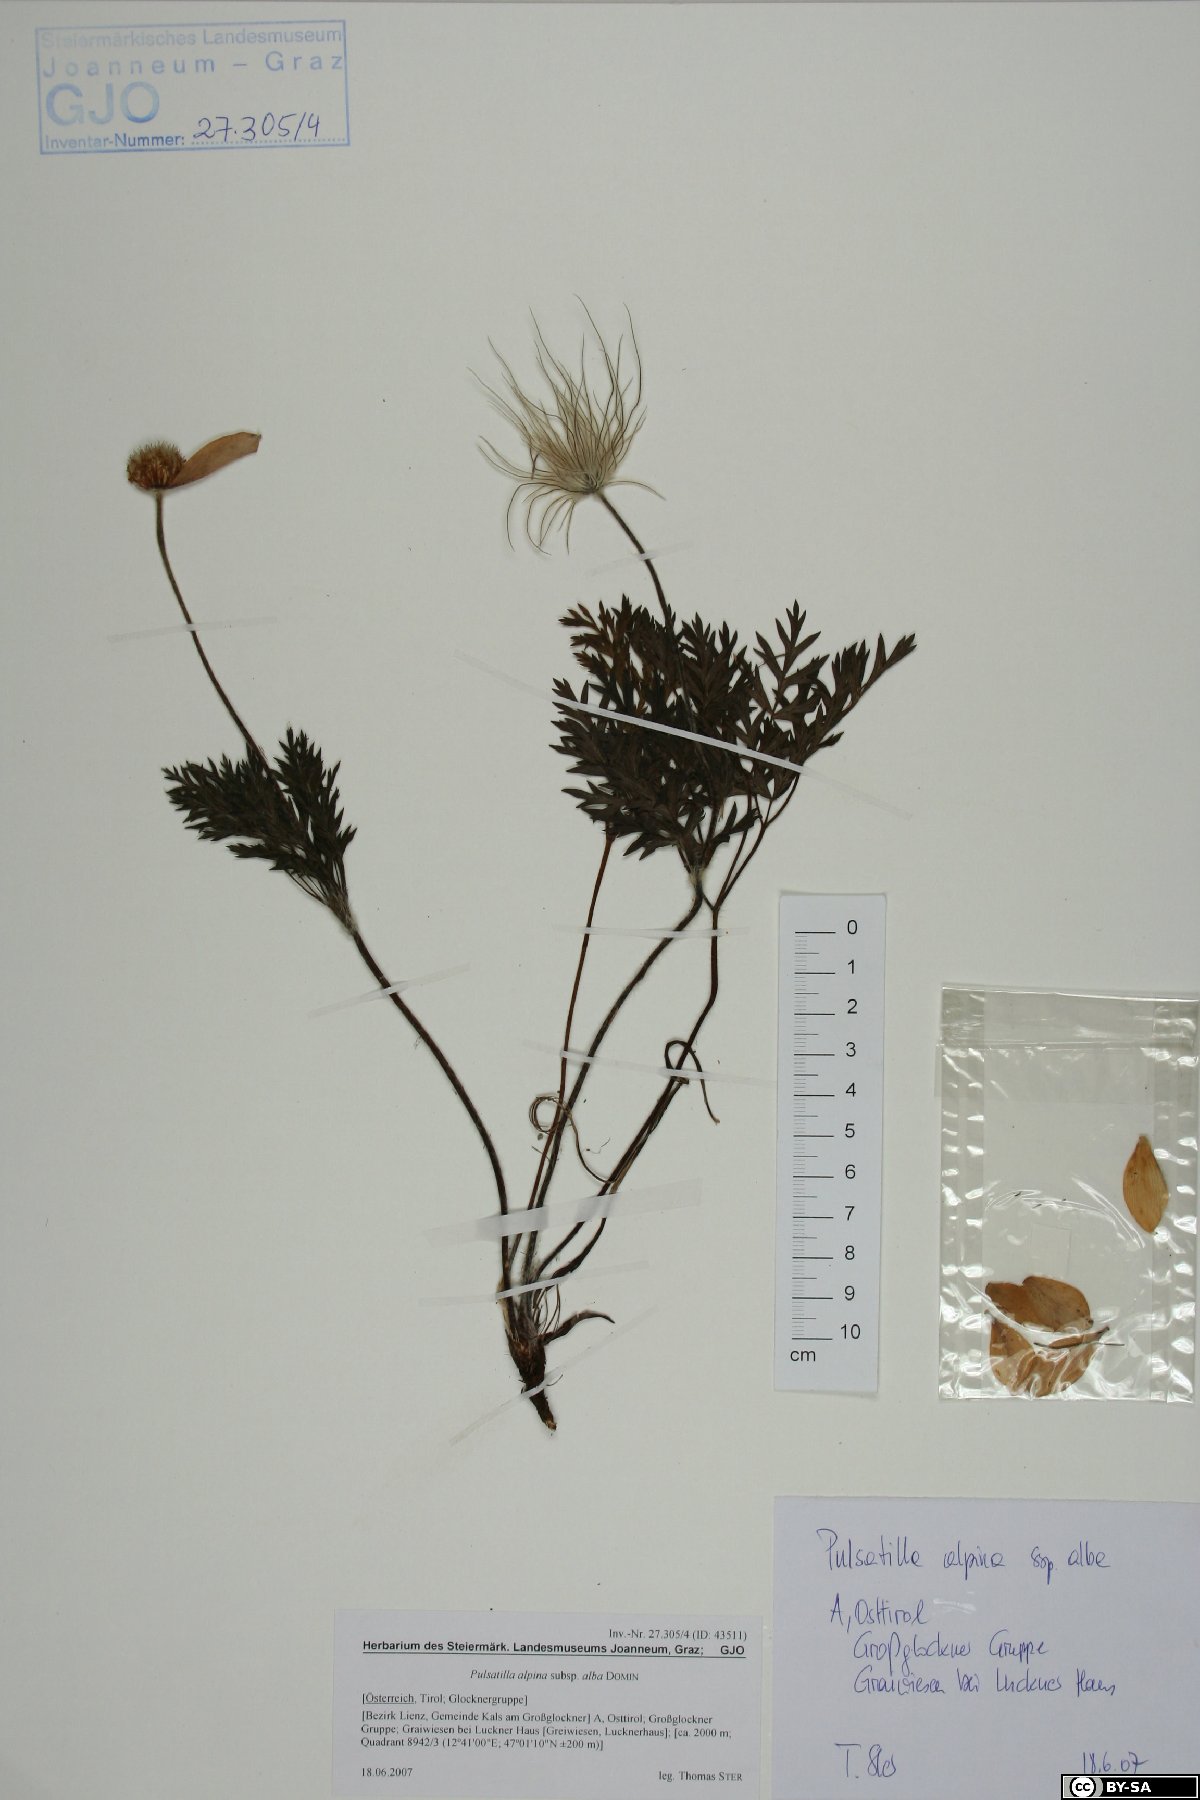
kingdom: Plantae
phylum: Tracheophyta
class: Magnoliopsida
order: Ranunculales
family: Ranunculaceae
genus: Pulsatilla
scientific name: Pulsatilla alpina
